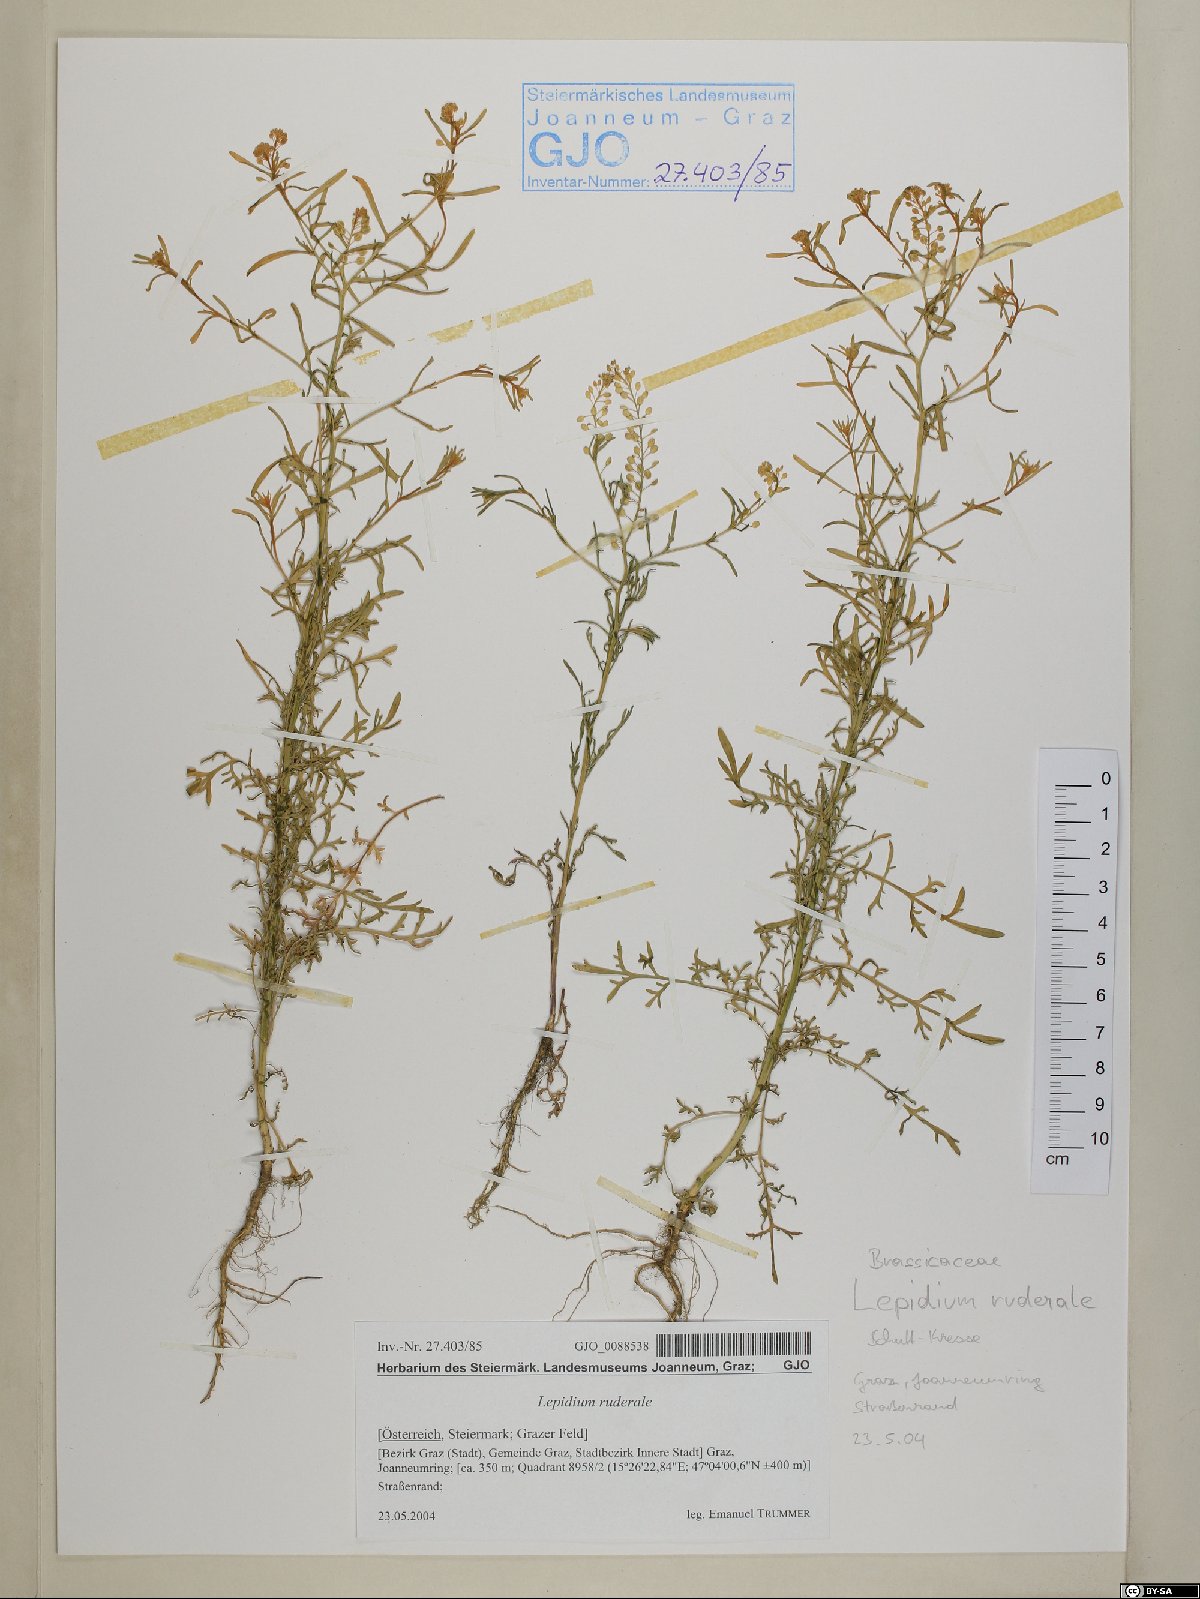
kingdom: Plantae
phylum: Tracheophyta
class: Magnoliopsida
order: Brassicales
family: Brassicaceae
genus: Lepidium
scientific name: Lepidium ruderale
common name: Narrow-leaved pepperwort
